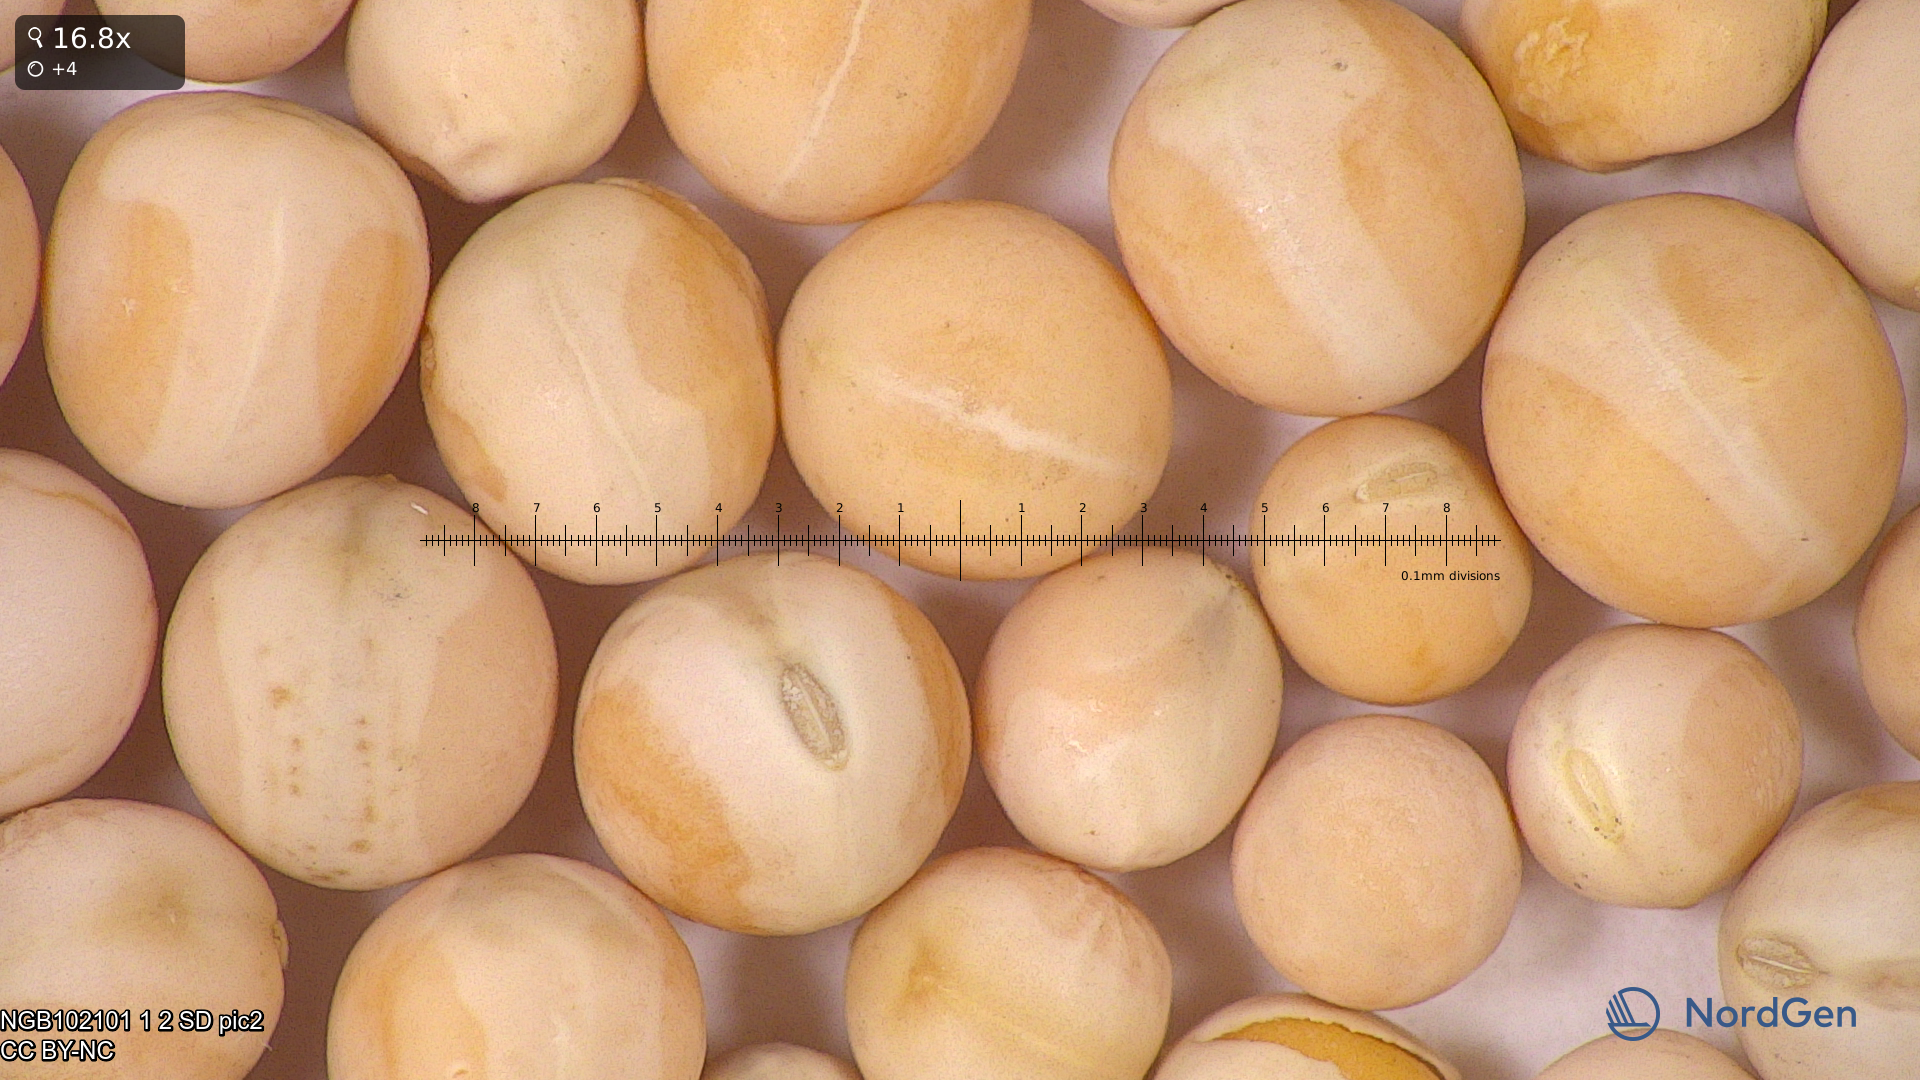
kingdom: Plantae
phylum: Tracheophyta
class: Magnoliopsida
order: Fabales
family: Fabaceae
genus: Lathyrus
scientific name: Lathyrus oleraceus
